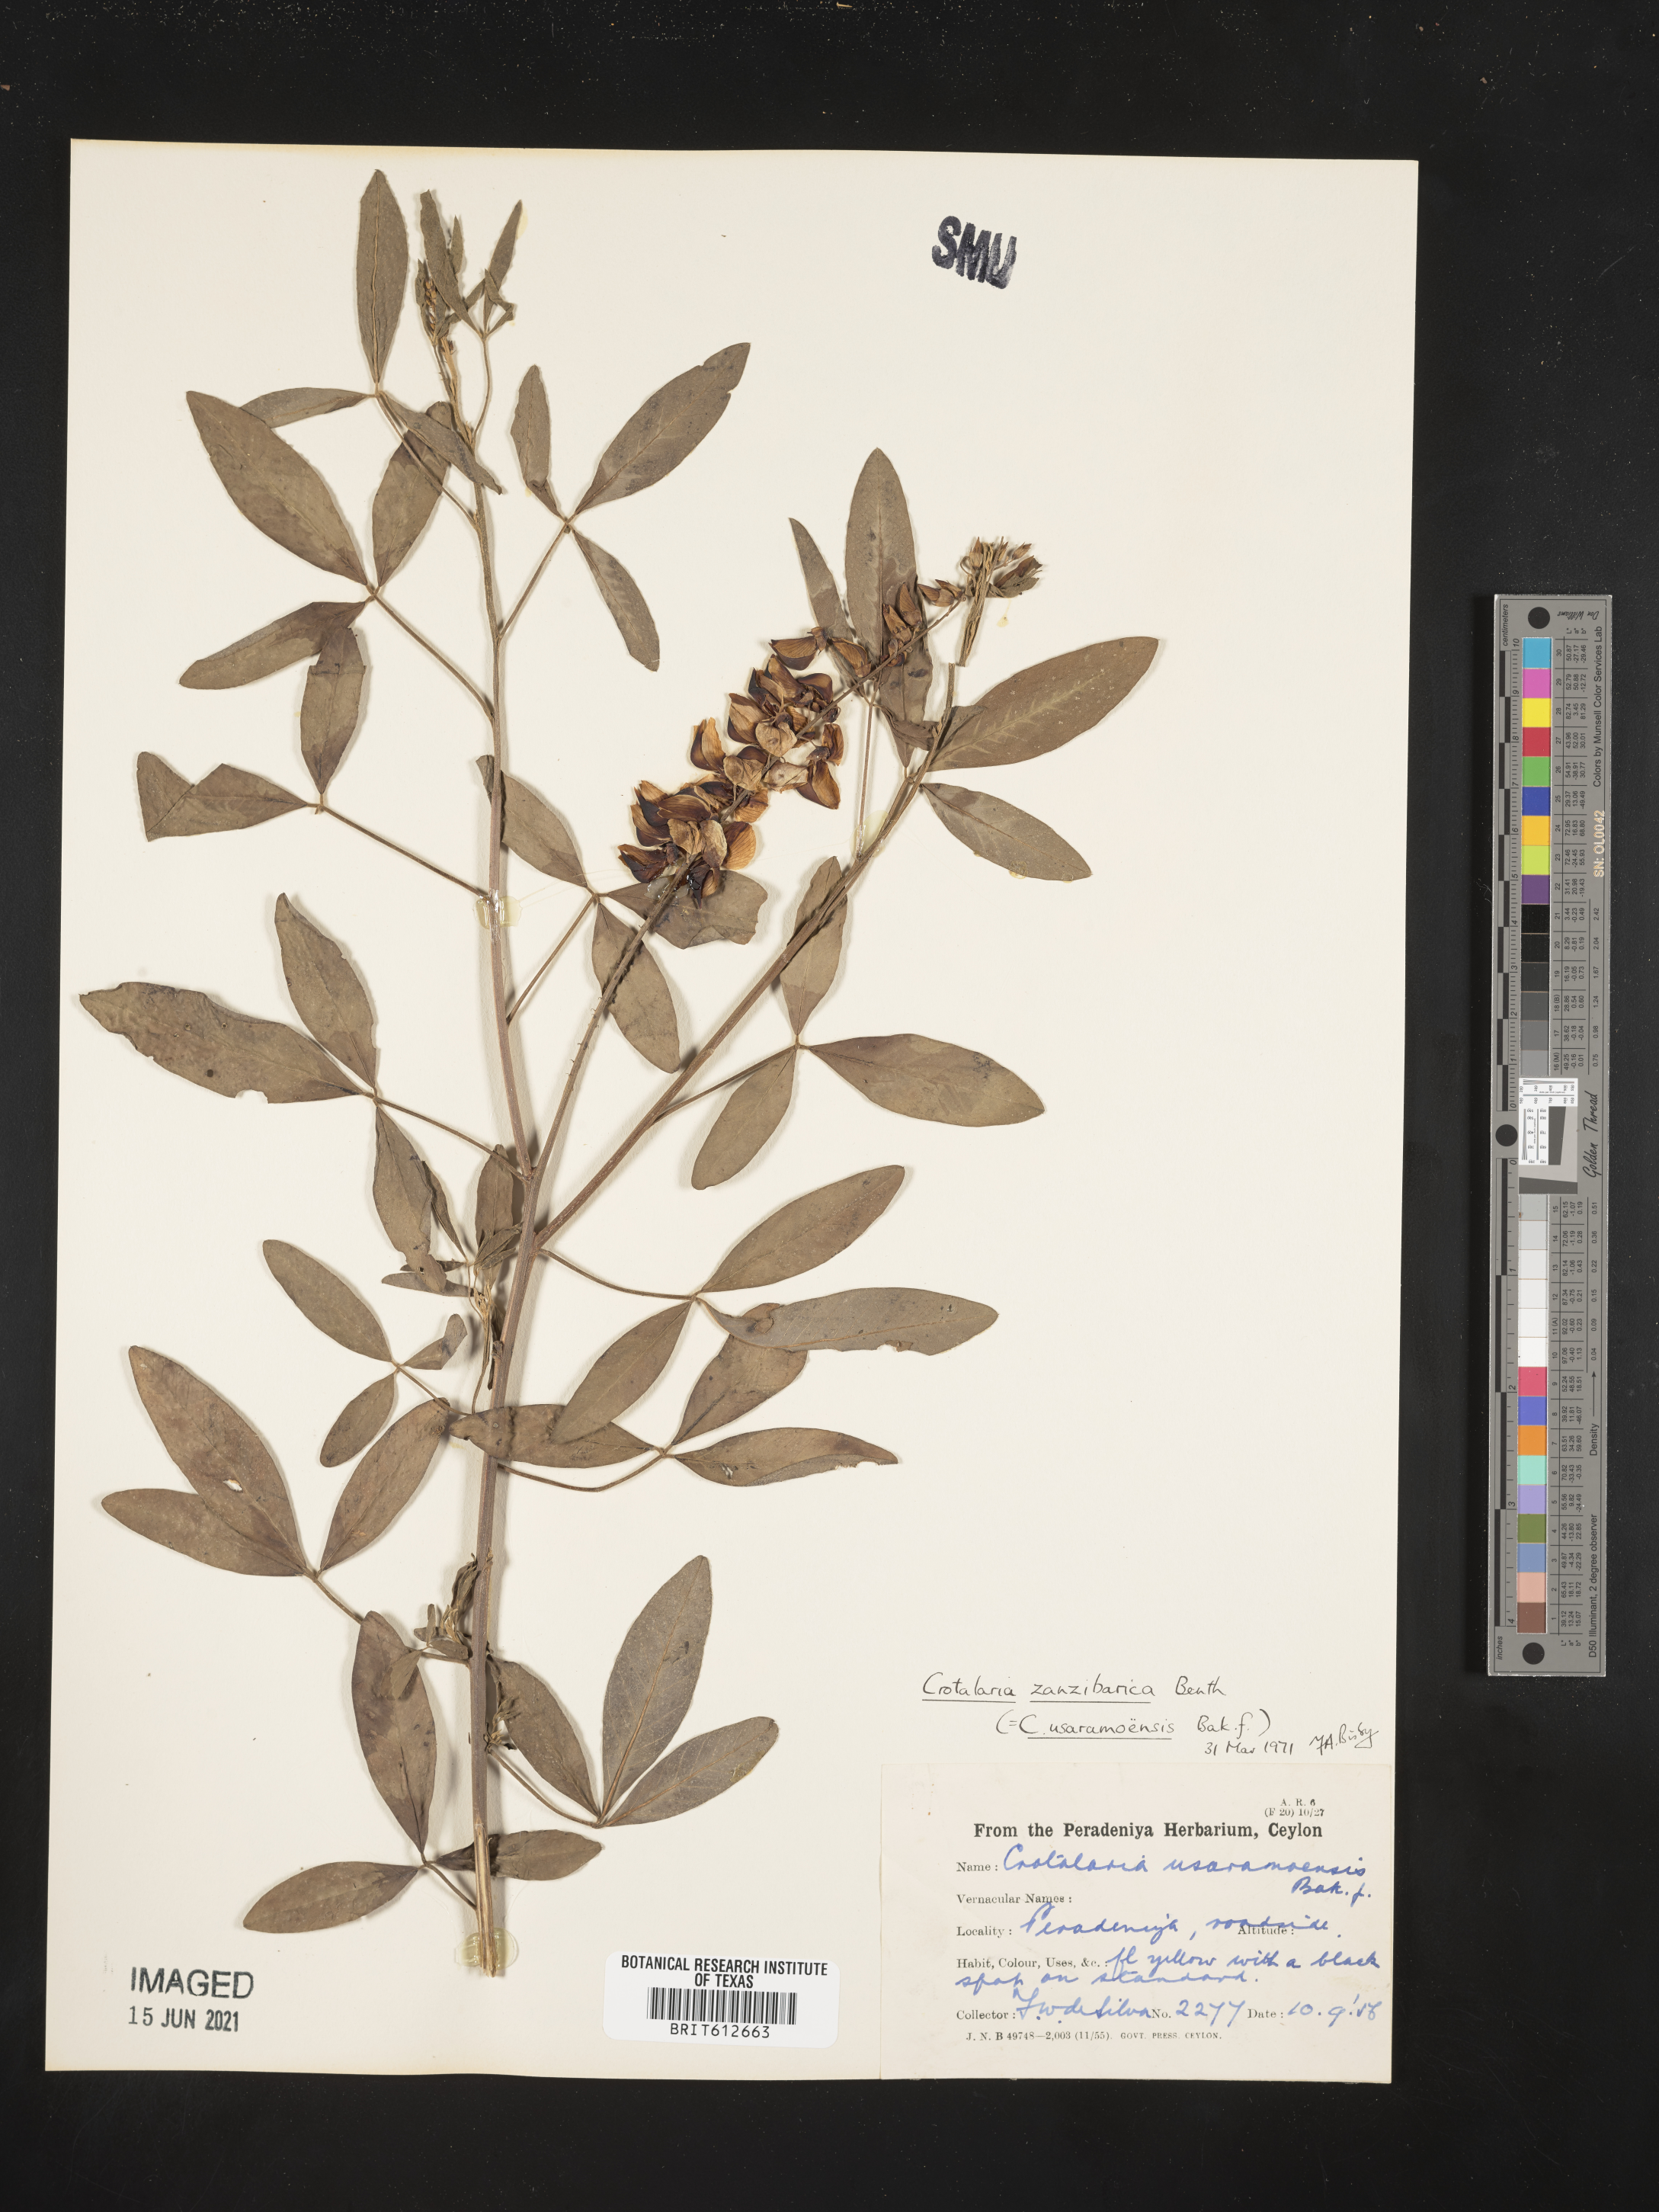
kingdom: Plantae
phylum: Tracheophyta
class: Magnoliopsida
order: Fabales
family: Fabaceae
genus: Crotalaria
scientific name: Crotalaria trichotoma
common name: West indian rattlebox
